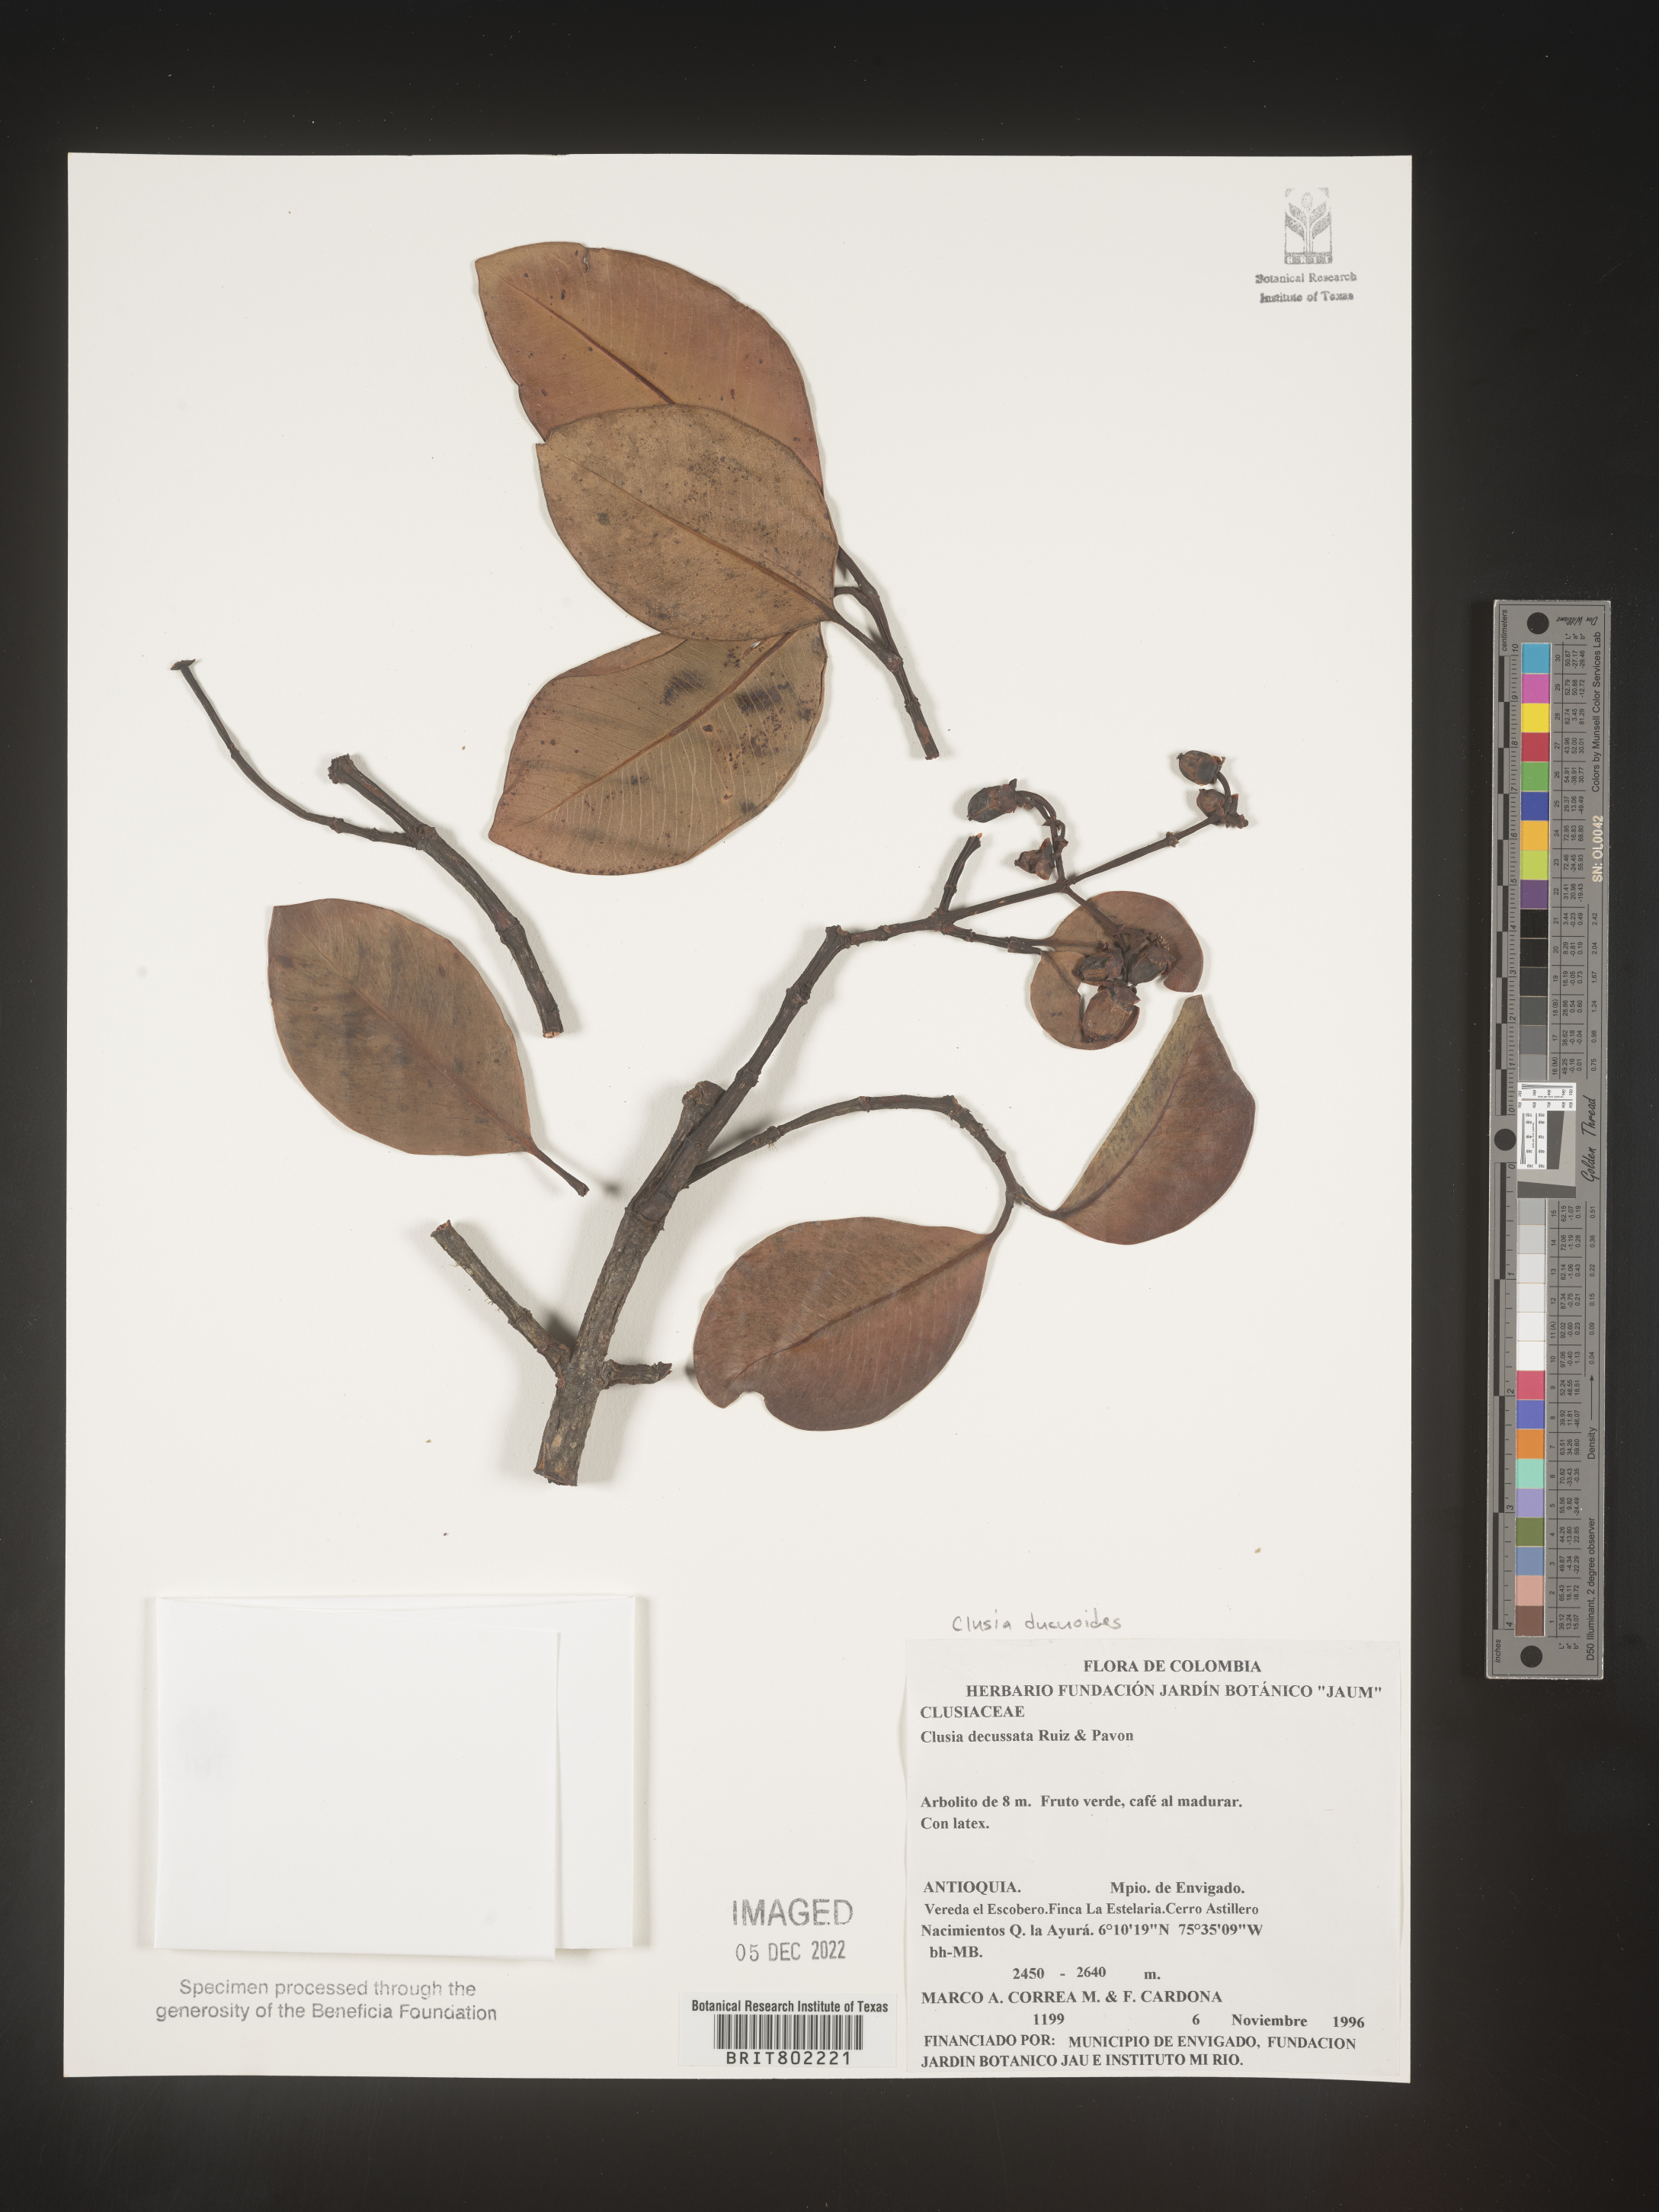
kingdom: Plantae
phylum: Tracheophyta
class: Magnoliopsida
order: Malpighiales
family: Clusiaceae
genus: Clusia
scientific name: Clusia ducuoides
